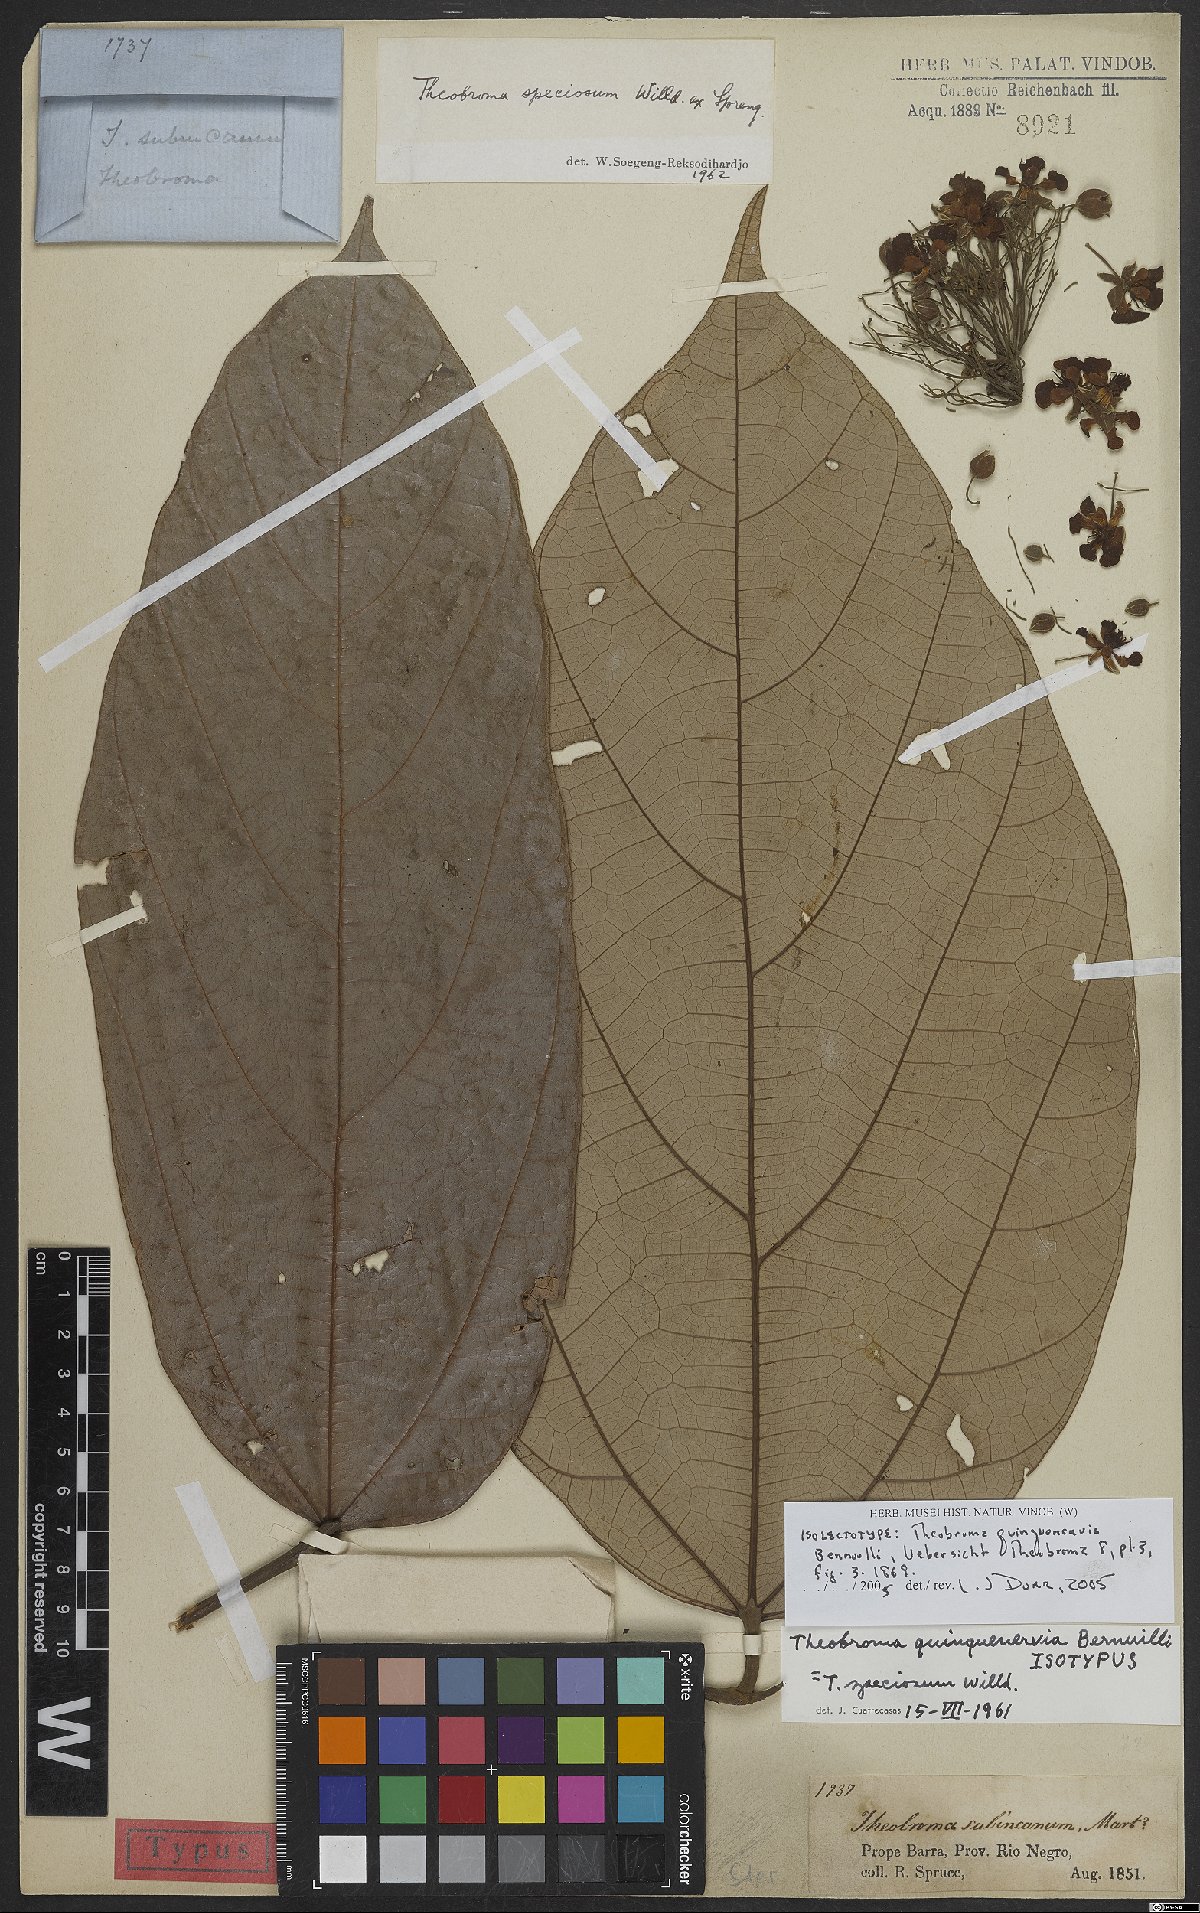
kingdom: Plantae
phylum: Tracheophyta
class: Magnoliopsida
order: Malvales
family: Malvaceae
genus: Theobroma
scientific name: Theobroma speciosum
